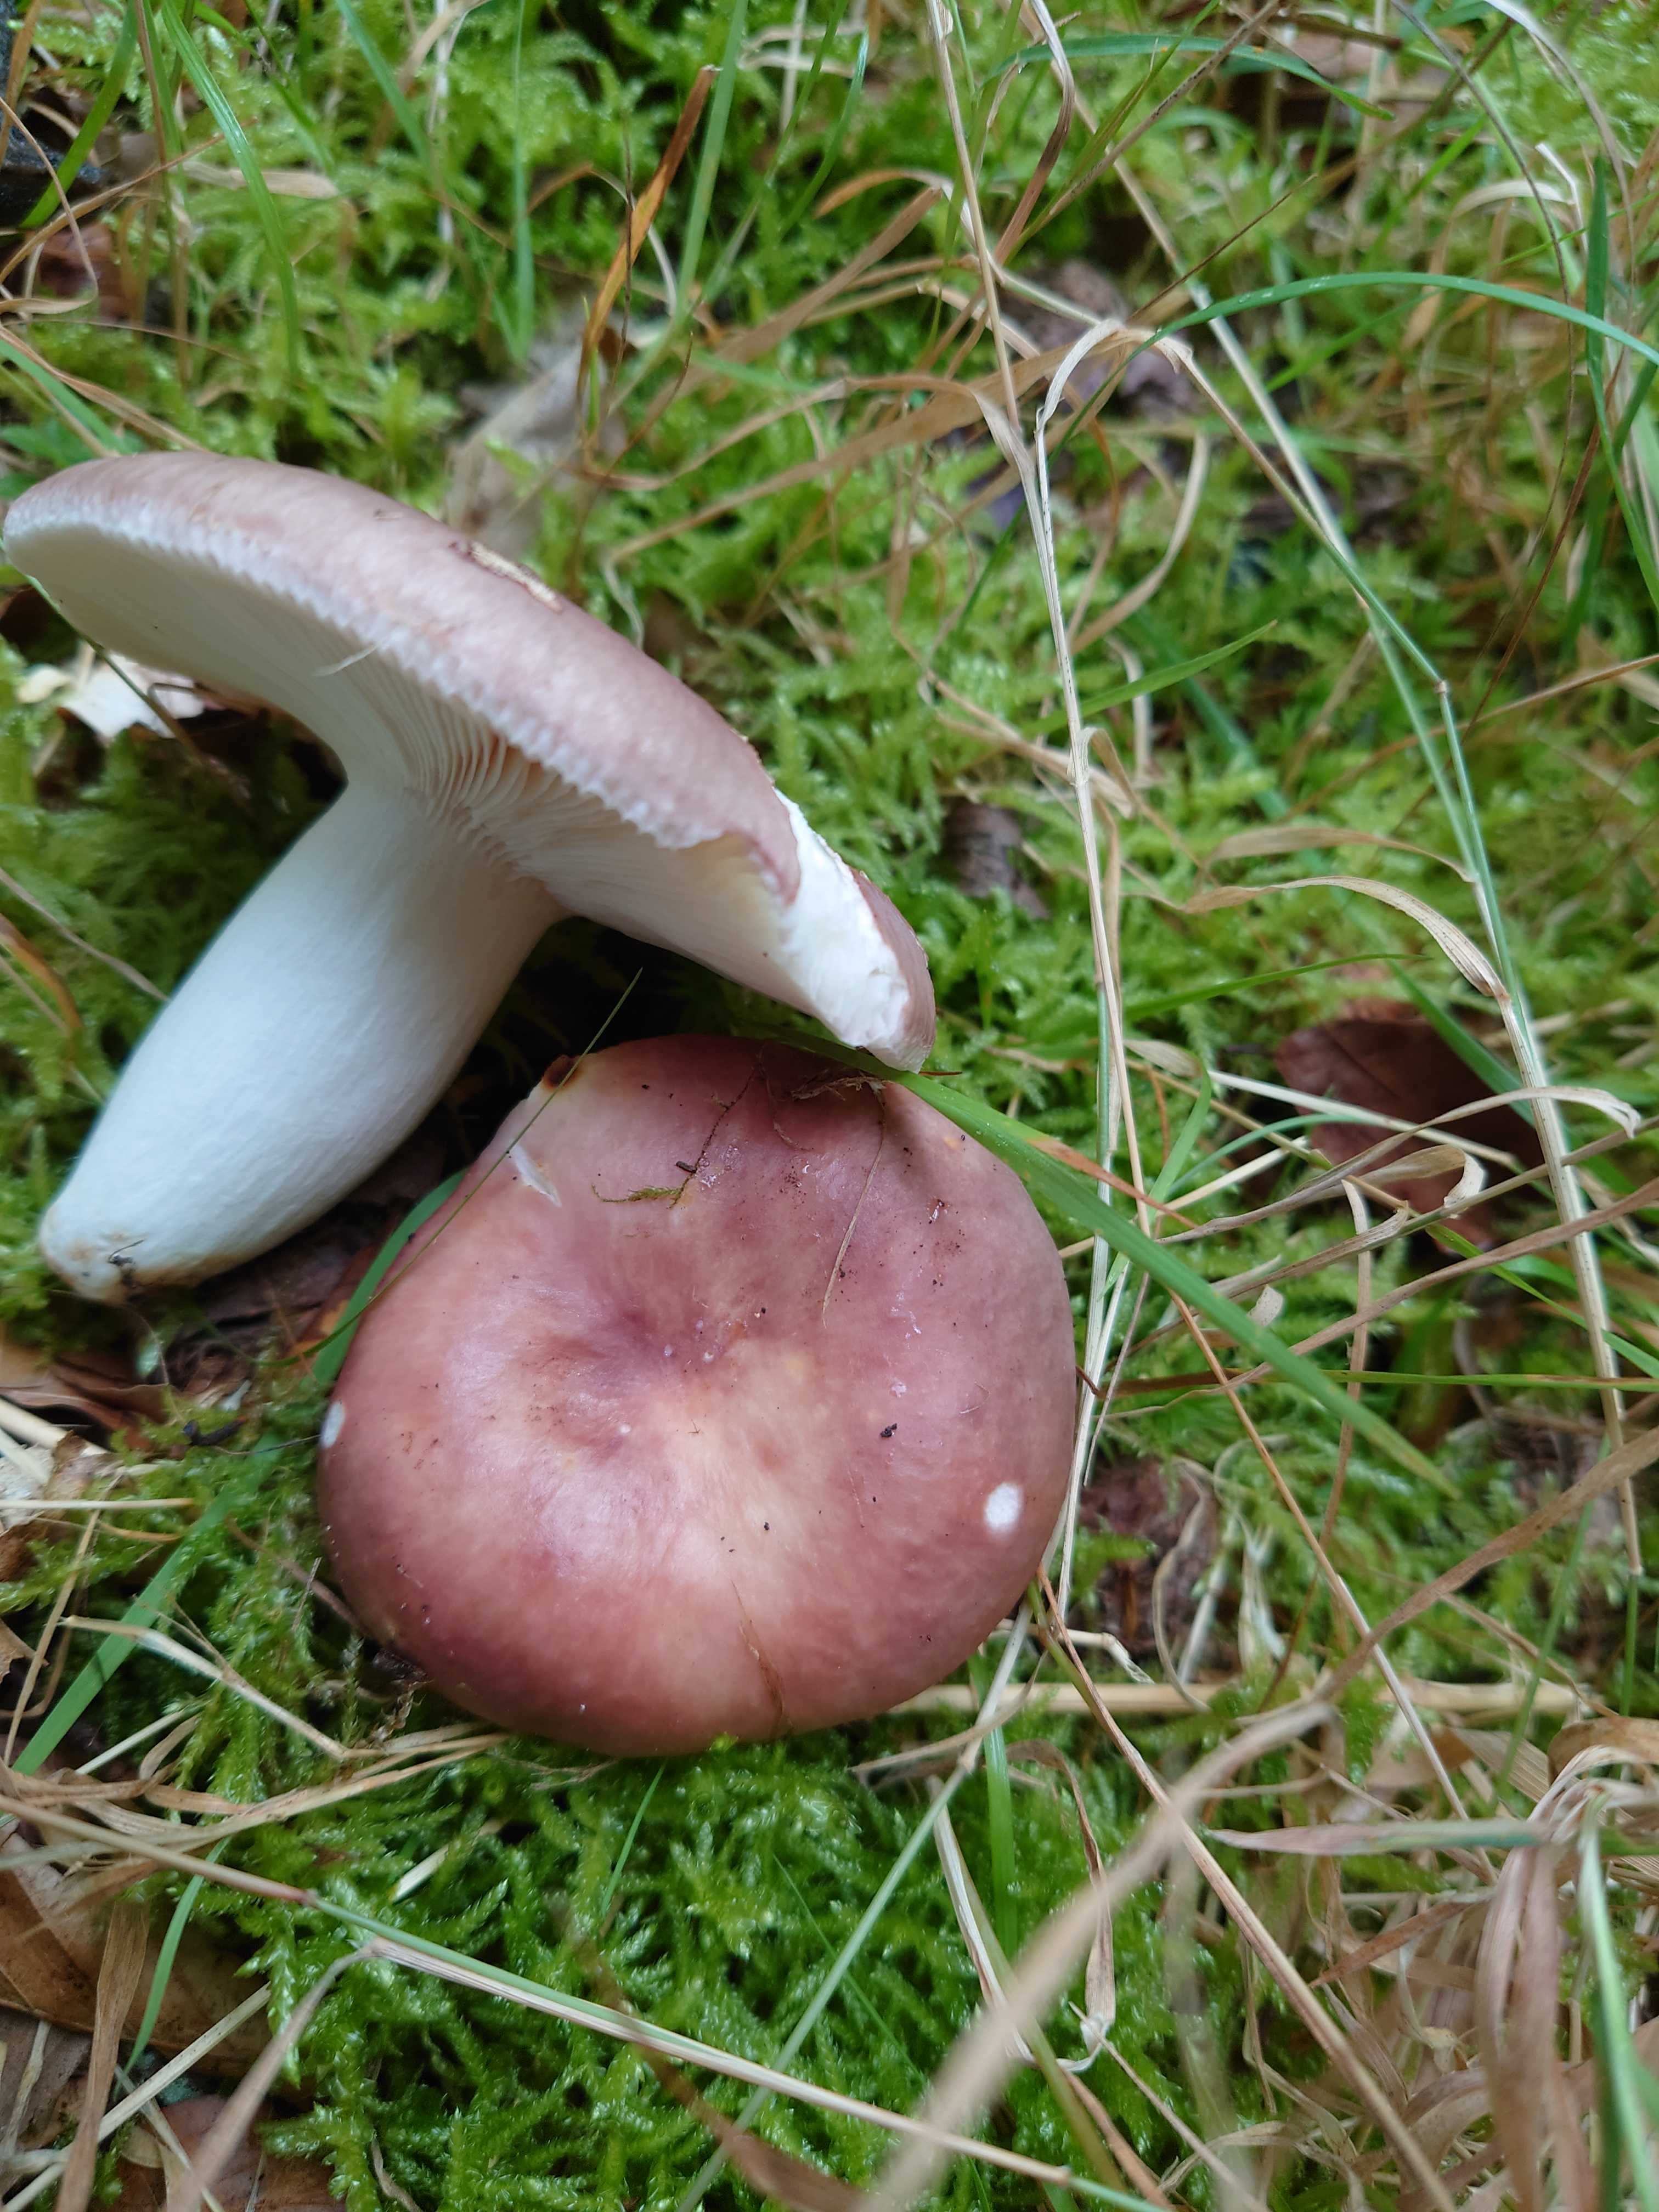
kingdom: Fungi
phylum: Basidiomycota
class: Agaricomycetes
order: Russulales
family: Russulaceae
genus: Russula
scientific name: Russula vesca
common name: spiselig skørhat
